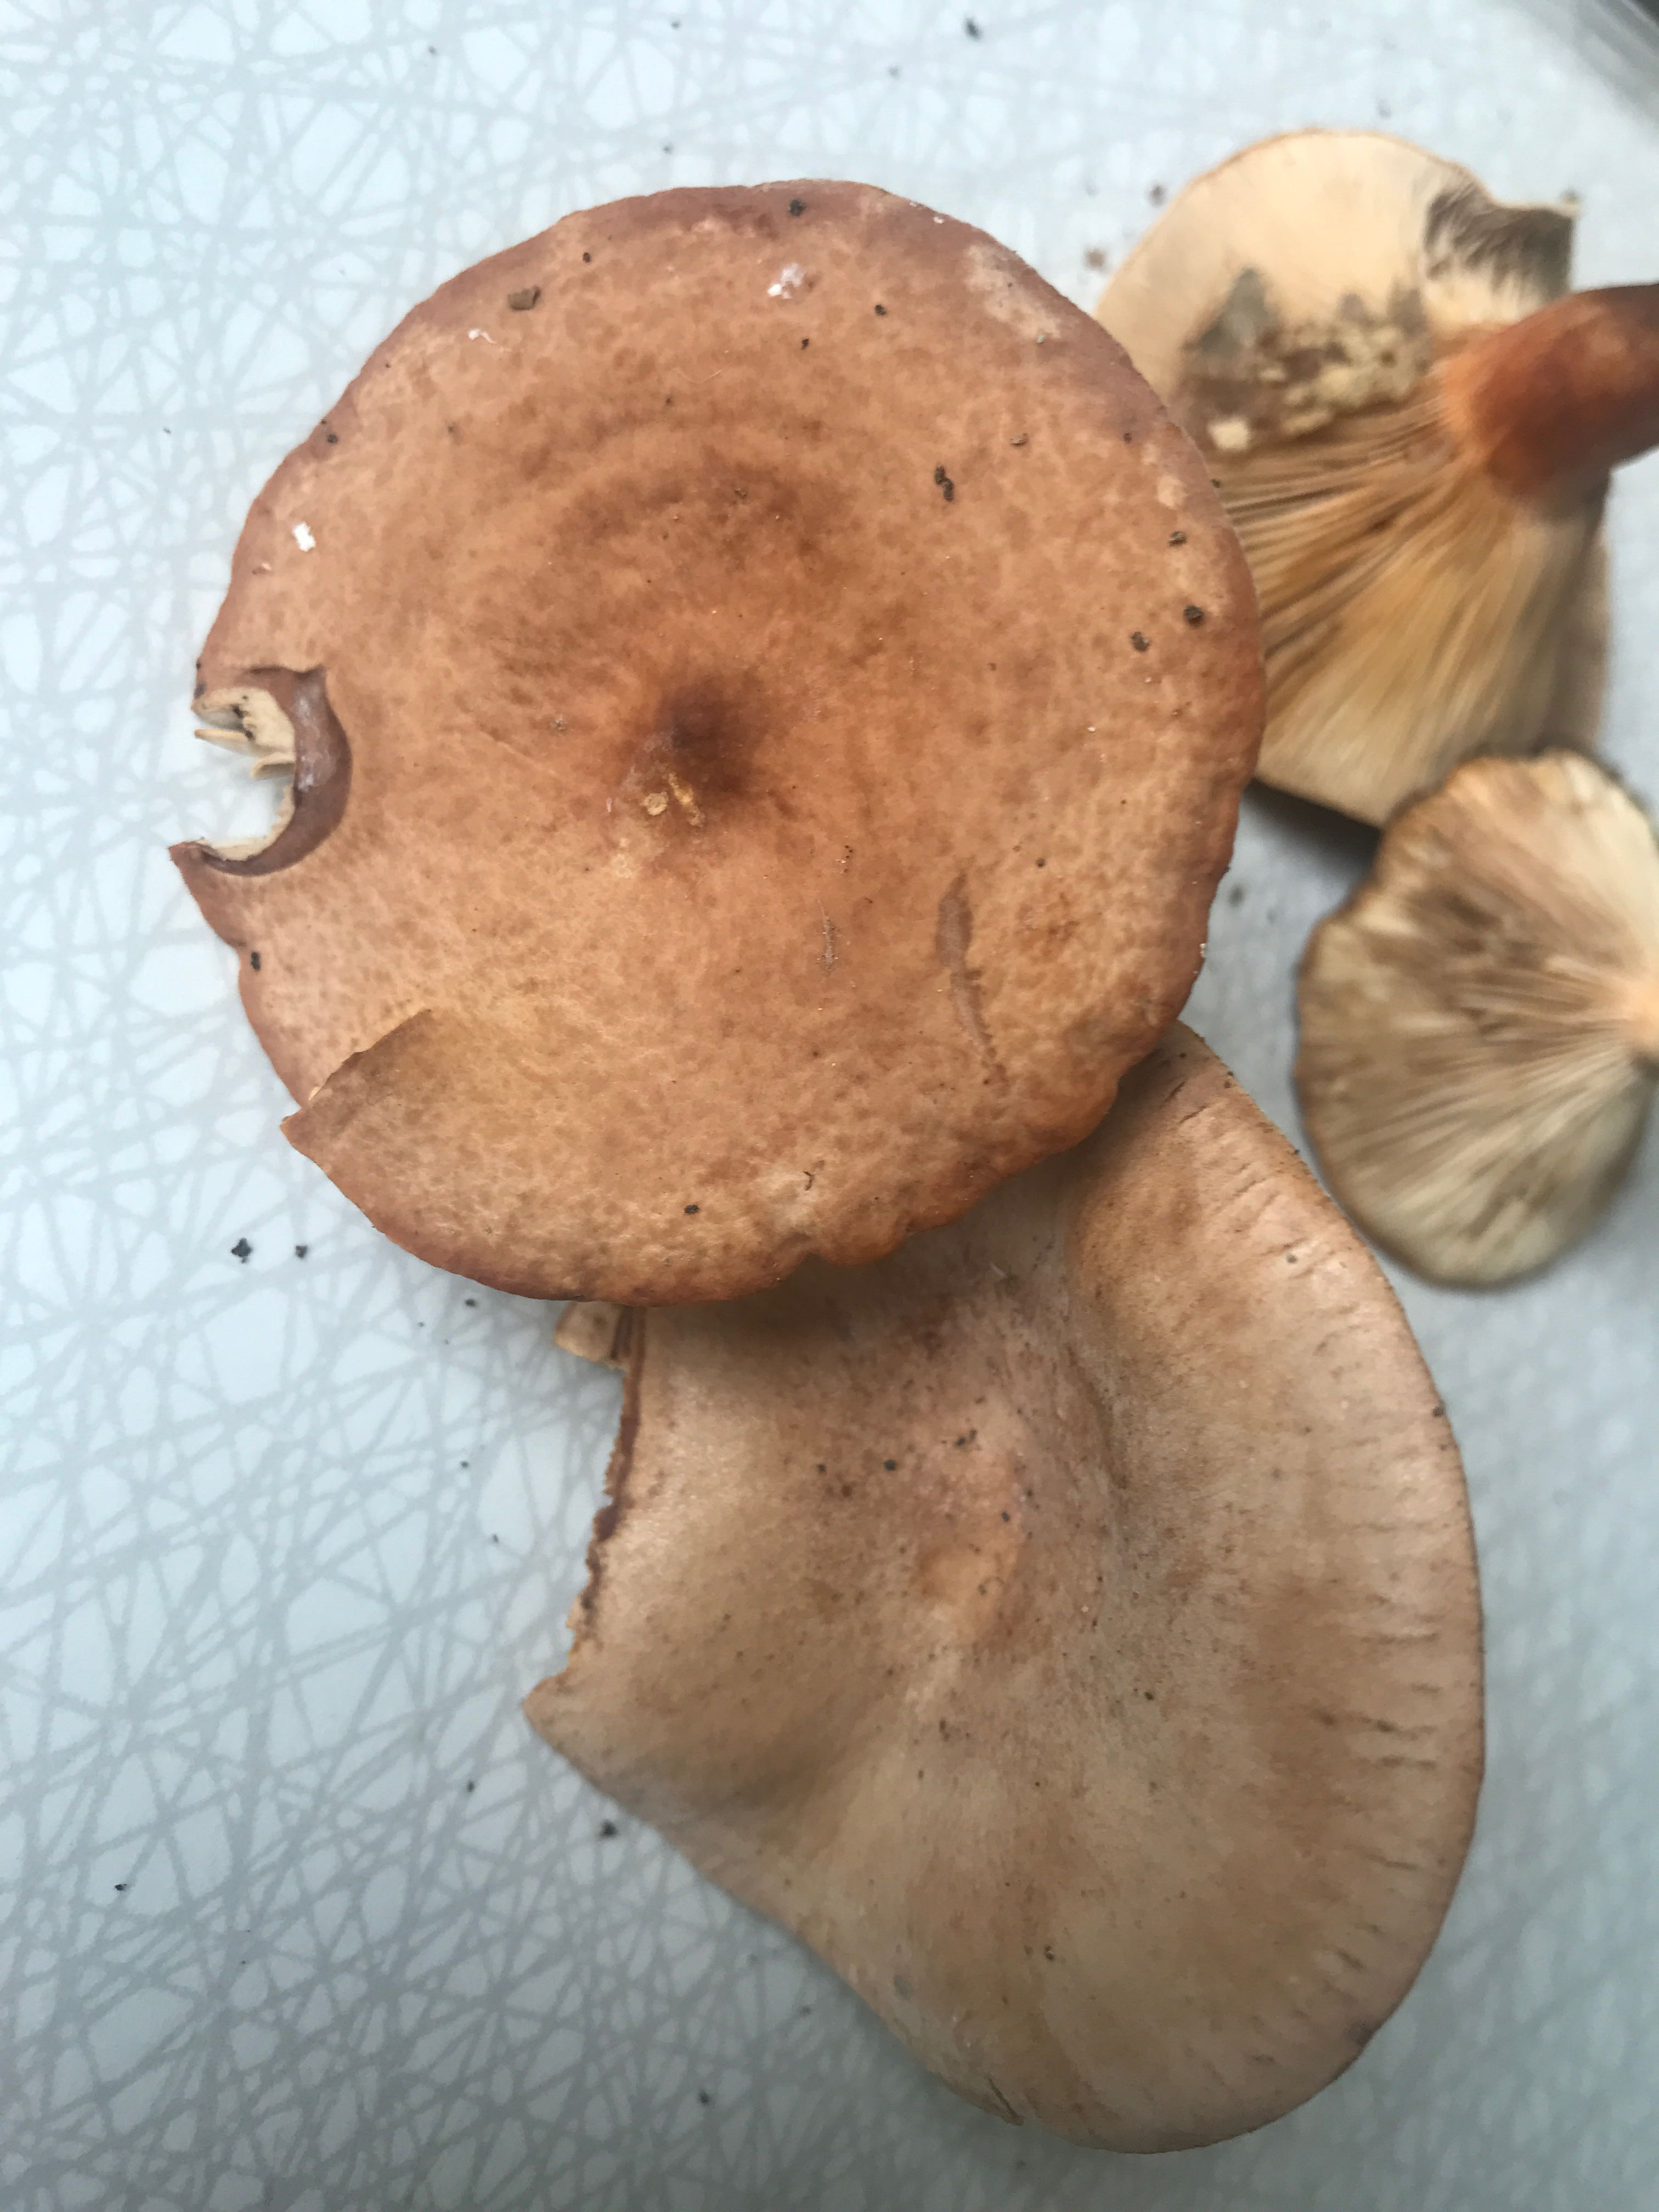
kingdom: Fungi
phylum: Basidiomycota
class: Agaricomycetes
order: Russulales
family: Russulaceae
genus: Lactarius
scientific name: Lactarius
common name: mælkehat
